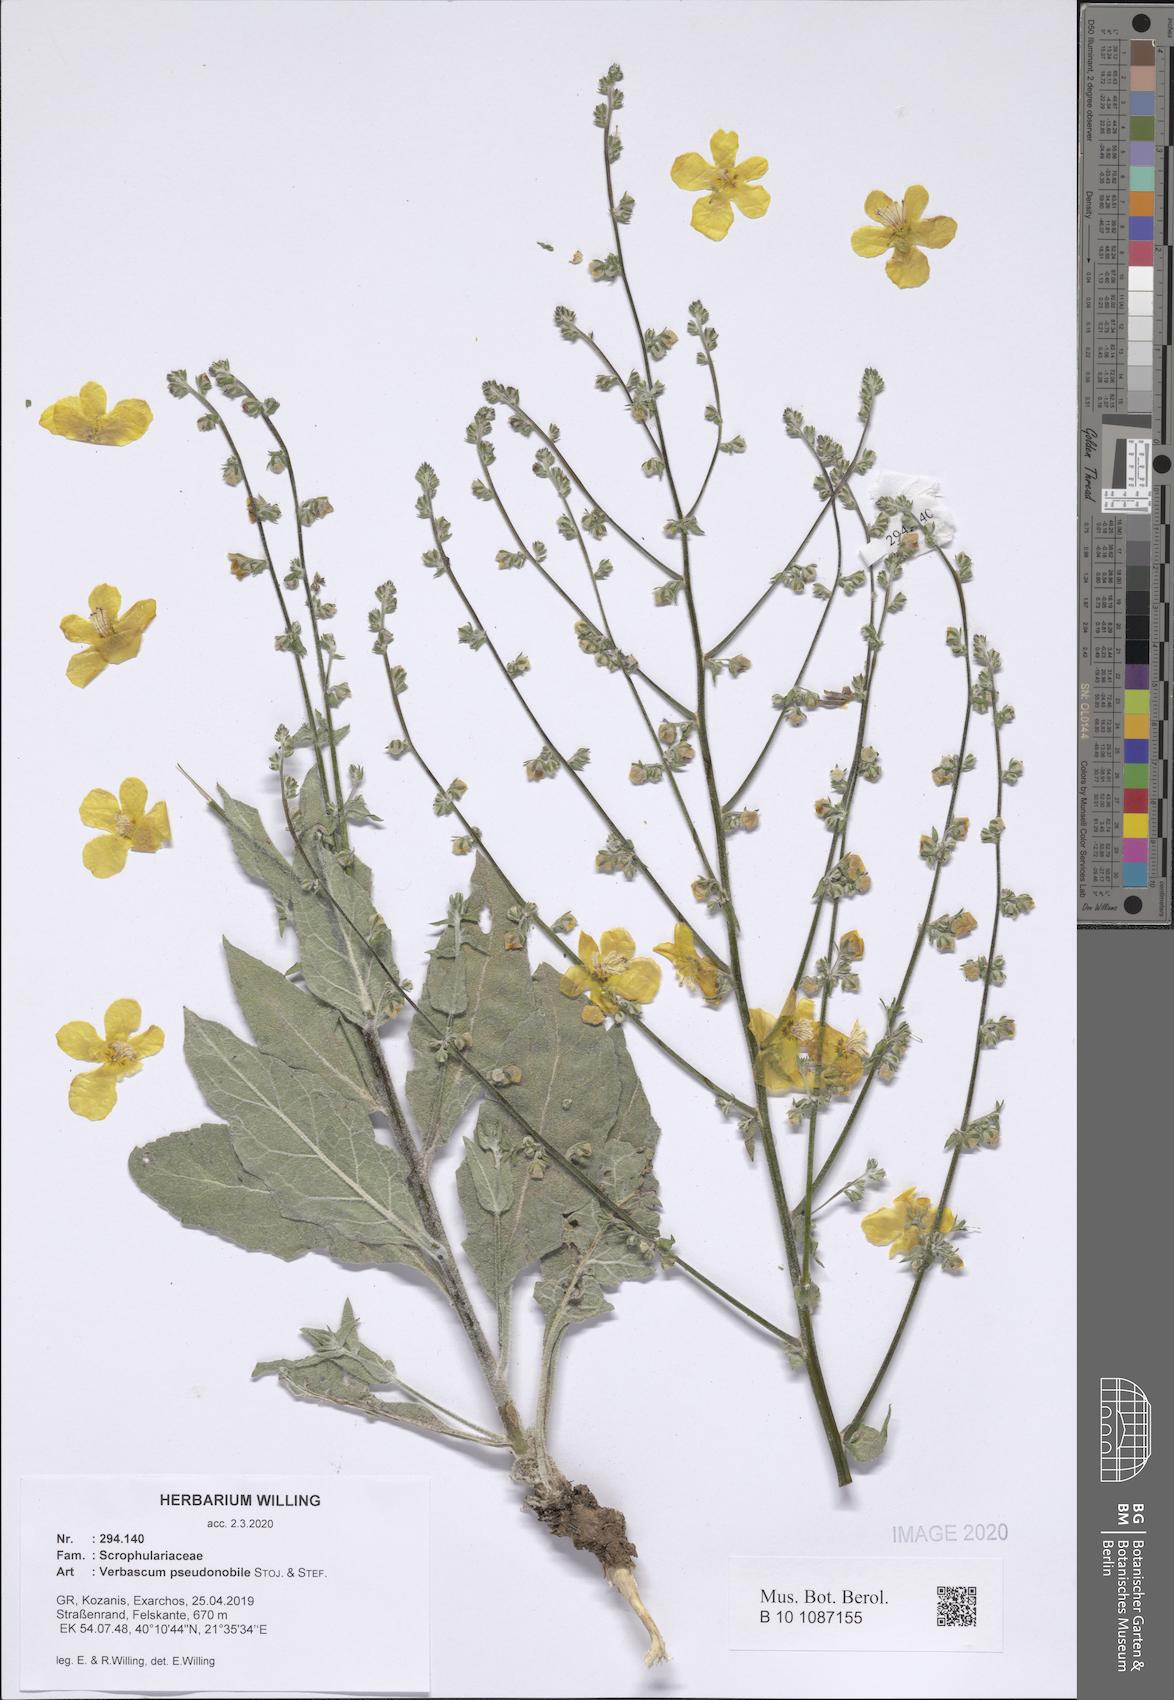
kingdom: Plantae
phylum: Tracheophyta
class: Magnoliopsida
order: Lamiales
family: Scrophulariaceae
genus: Verbascum
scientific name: Verbascum pseudonobile
